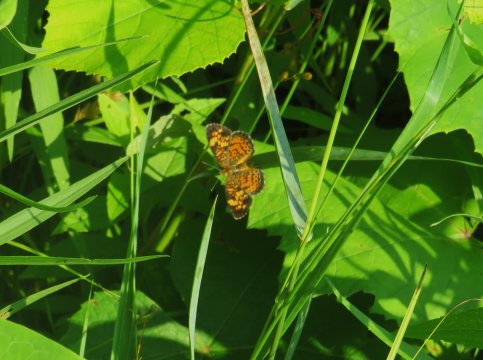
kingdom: Animalia
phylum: Arthropoda
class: Insecta
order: Lepidoptera
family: Nymphalidae
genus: Phyciodes
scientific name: Phyciodes tharos
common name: Pearl Crescent
